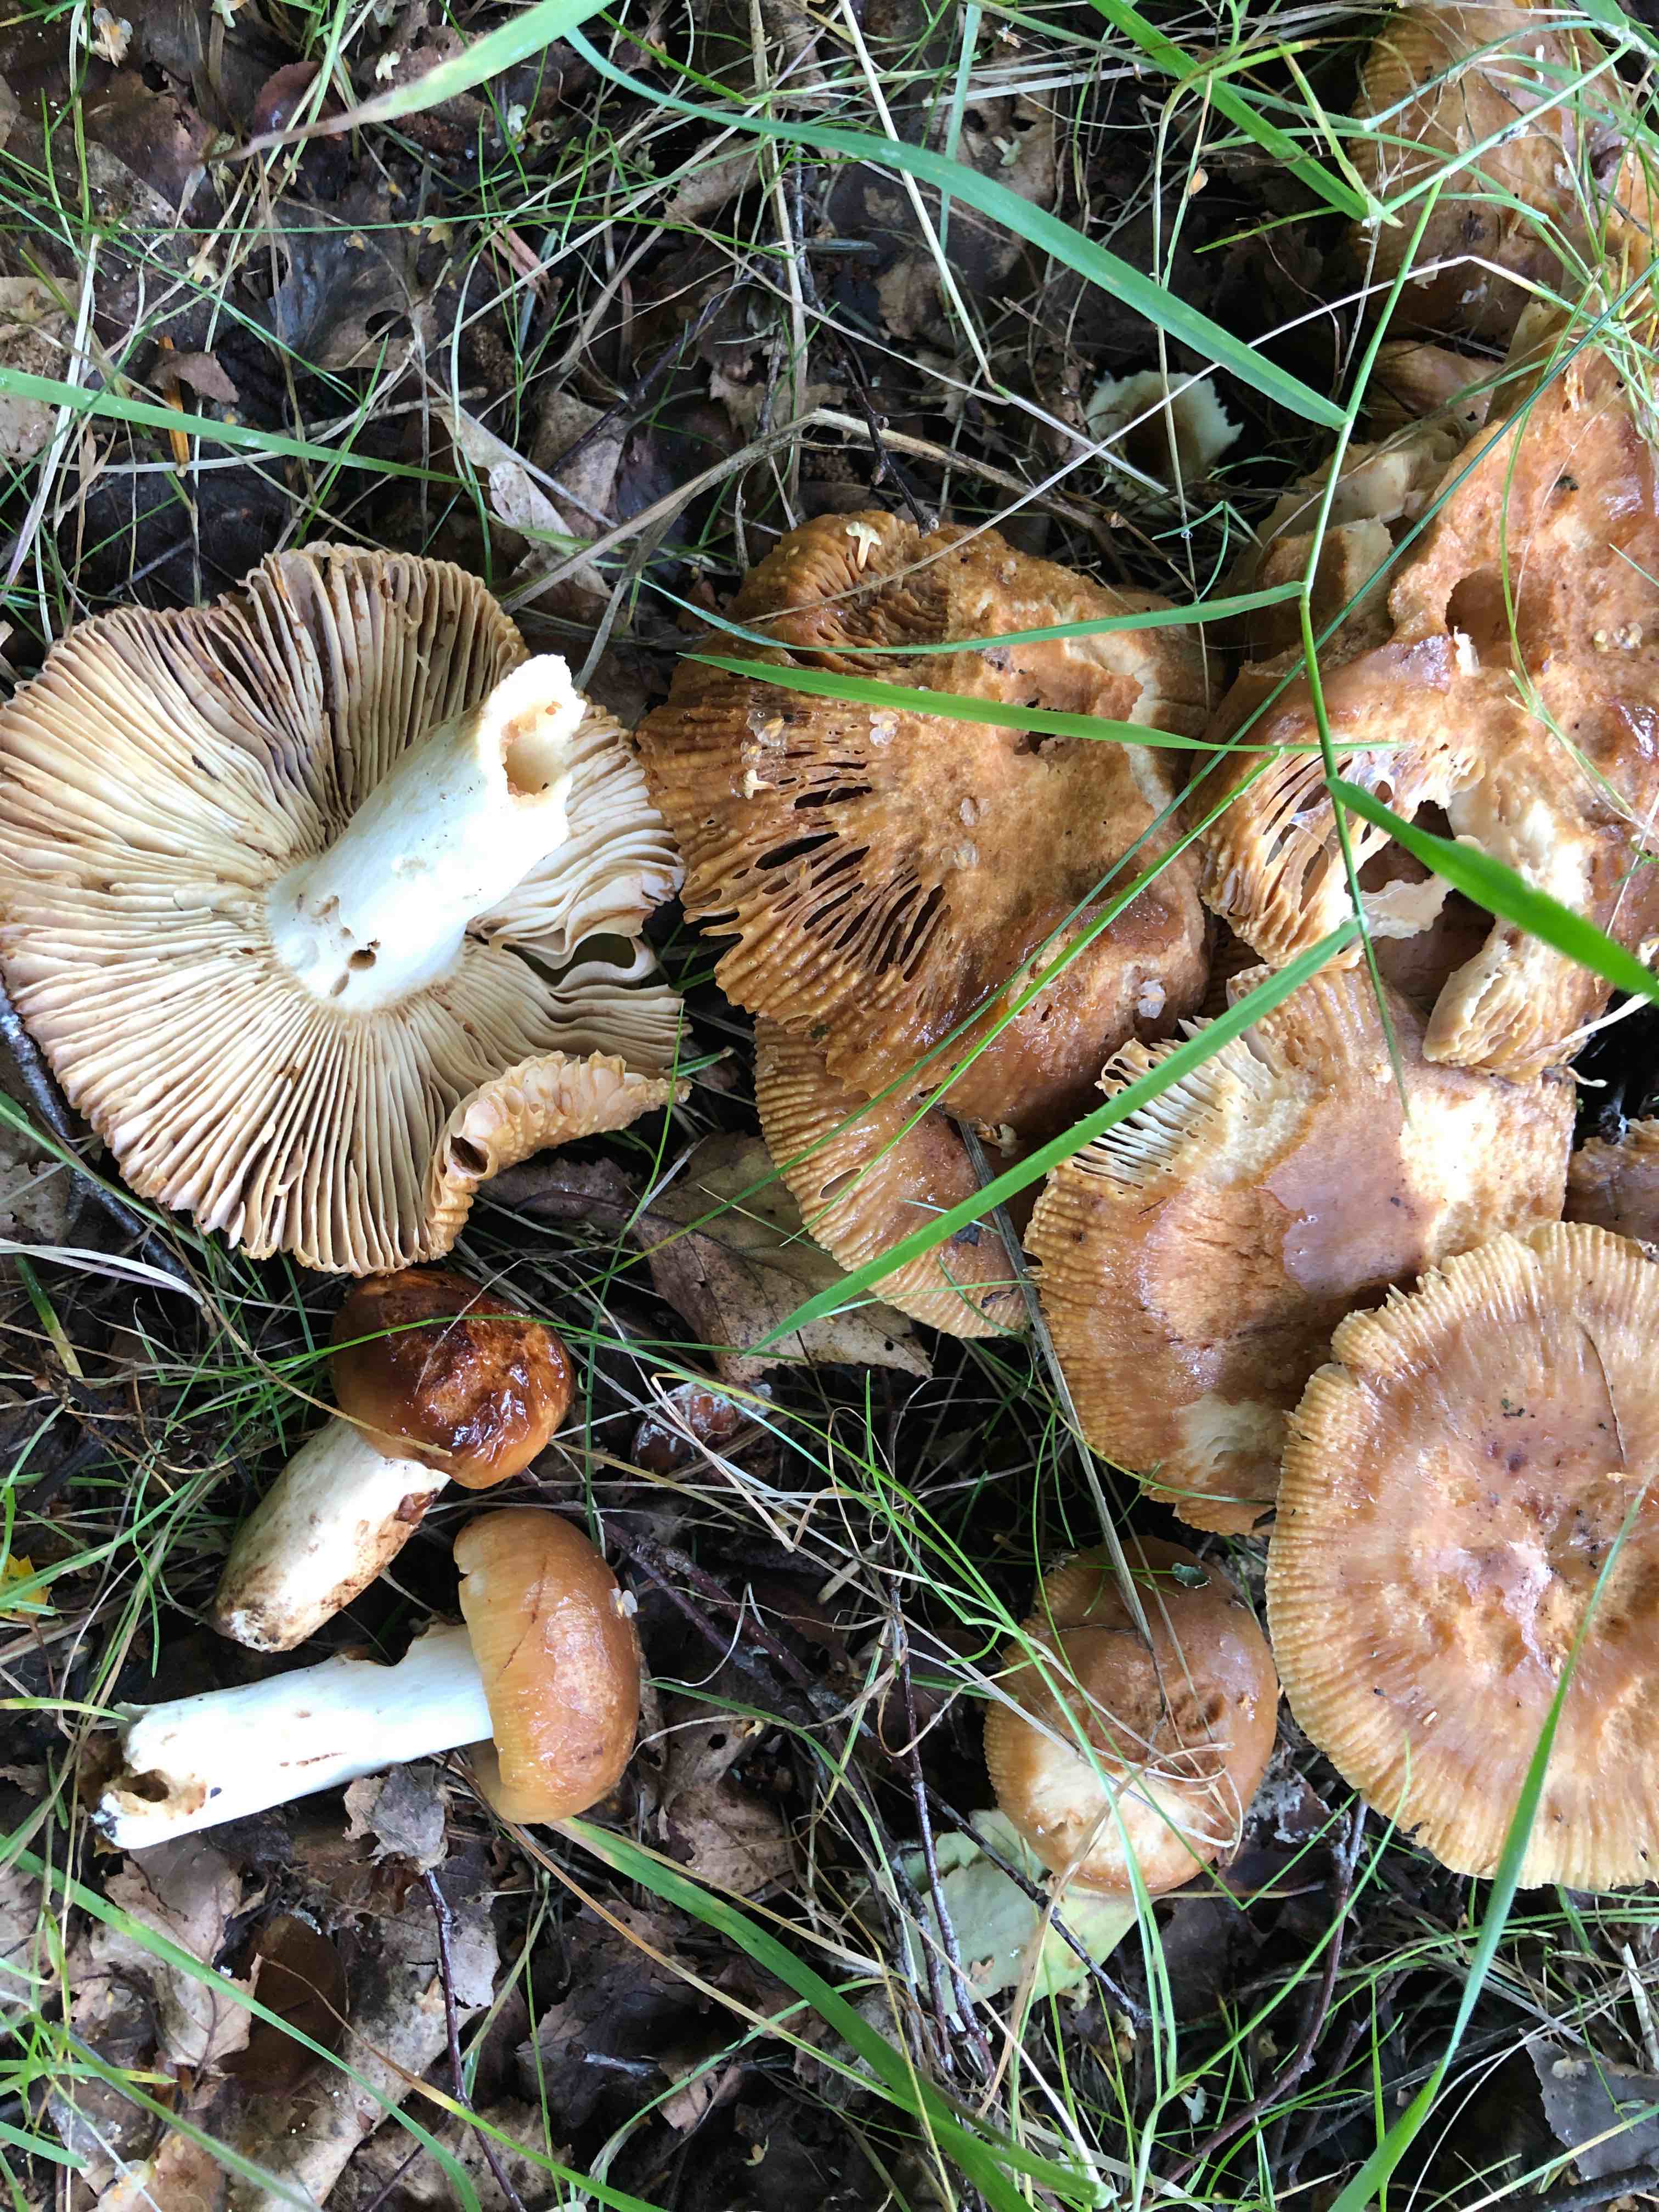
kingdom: Fungi
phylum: Basidiomycota
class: Agaricomycetes
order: Russulales
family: Russulaceae
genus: Russula
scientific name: Russula foetens
